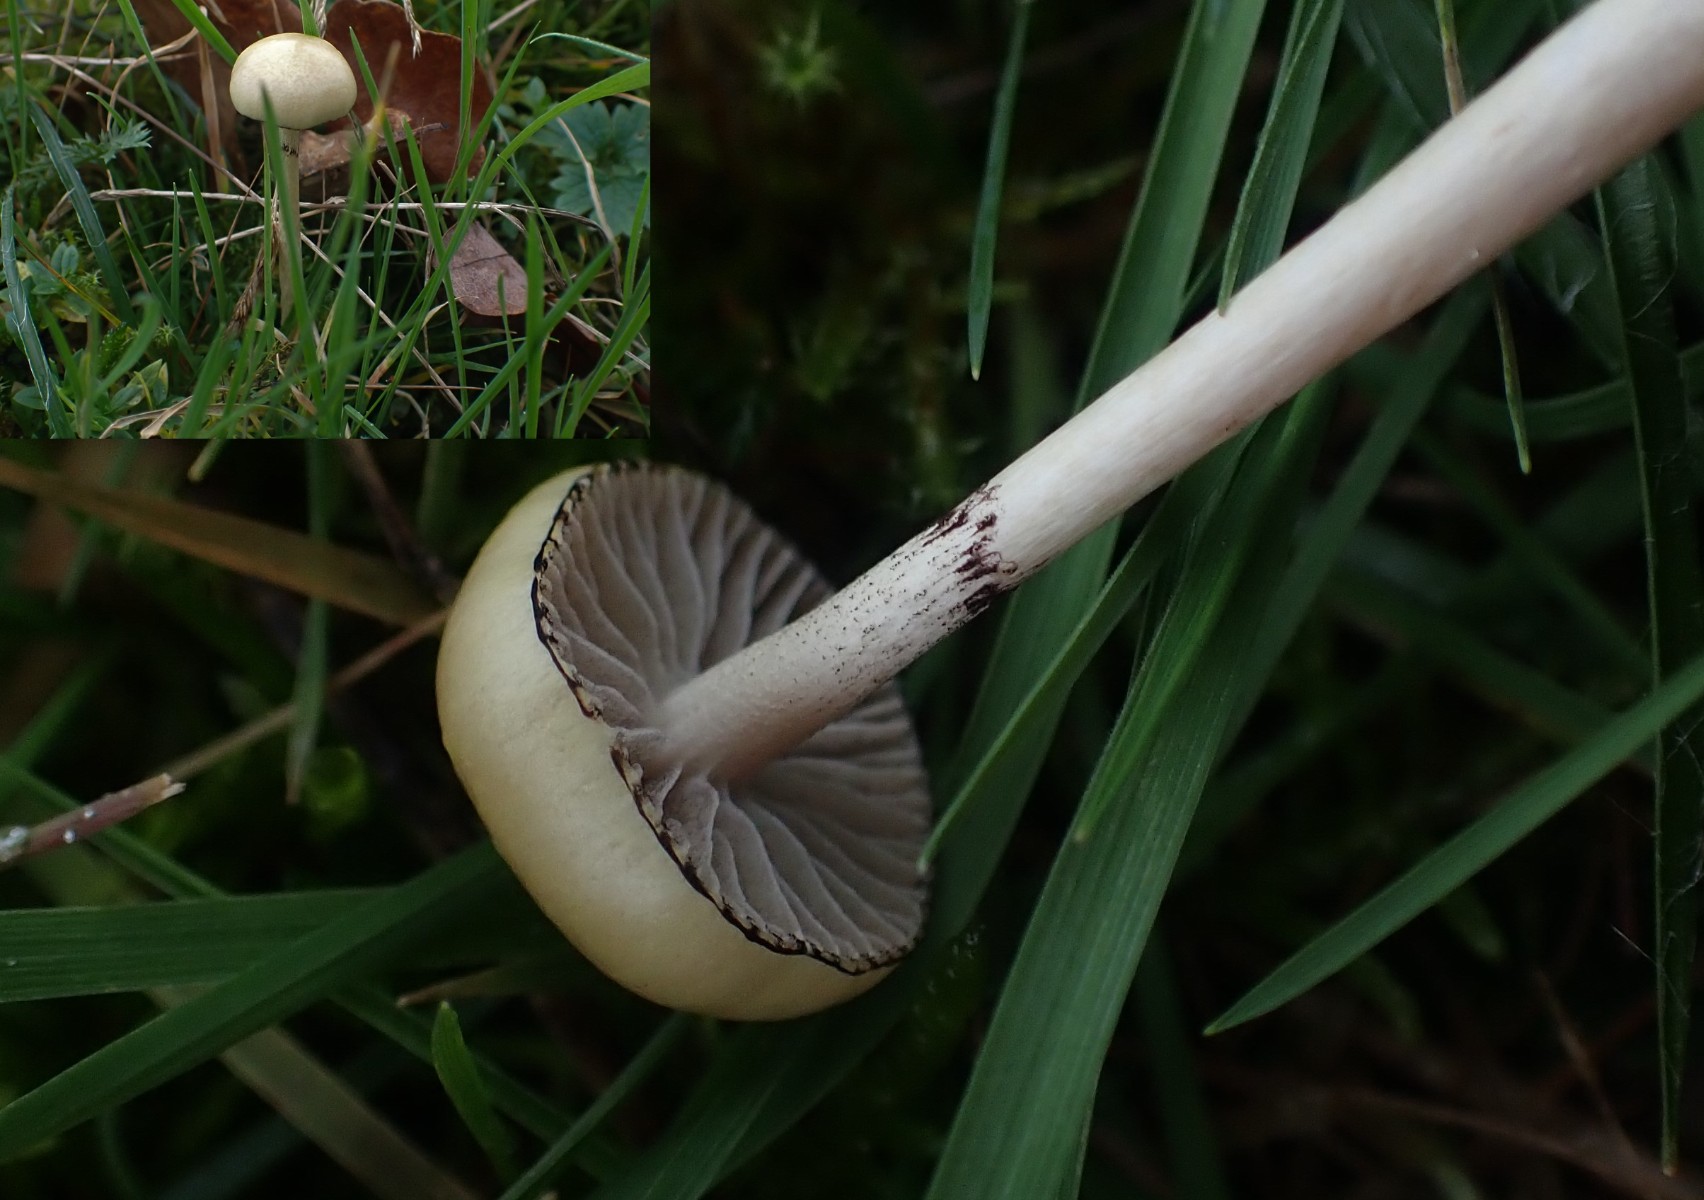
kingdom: Fungi
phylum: Basidiomycota
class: Agaricomycetes
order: Agaricales
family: Strophariaceae
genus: Protostropharia
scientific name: Protostropharia semiglobata
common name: halvkugleformet bredblad
